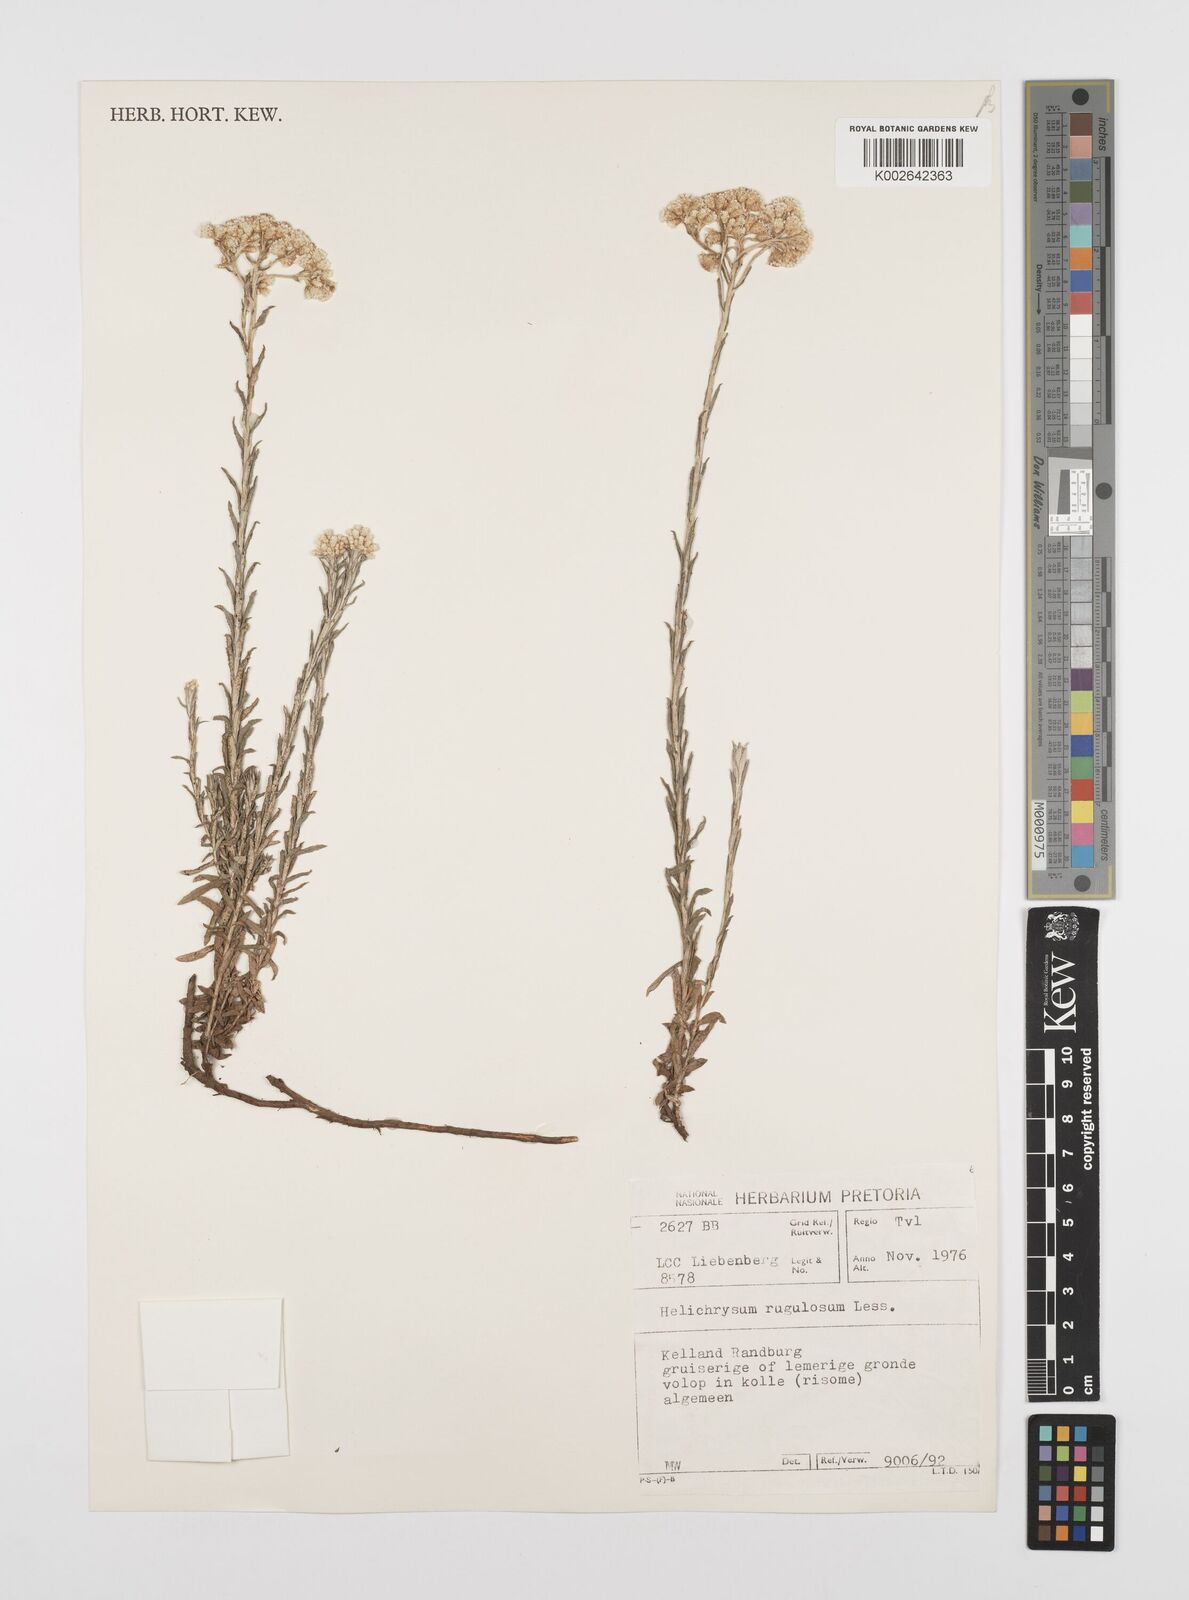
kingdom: Plantae
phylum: Tracheophyta
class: Magnoliopsida
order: Asterales
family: Asteraceae
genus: Helichrysum
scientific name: Helichrysum rugulosum
